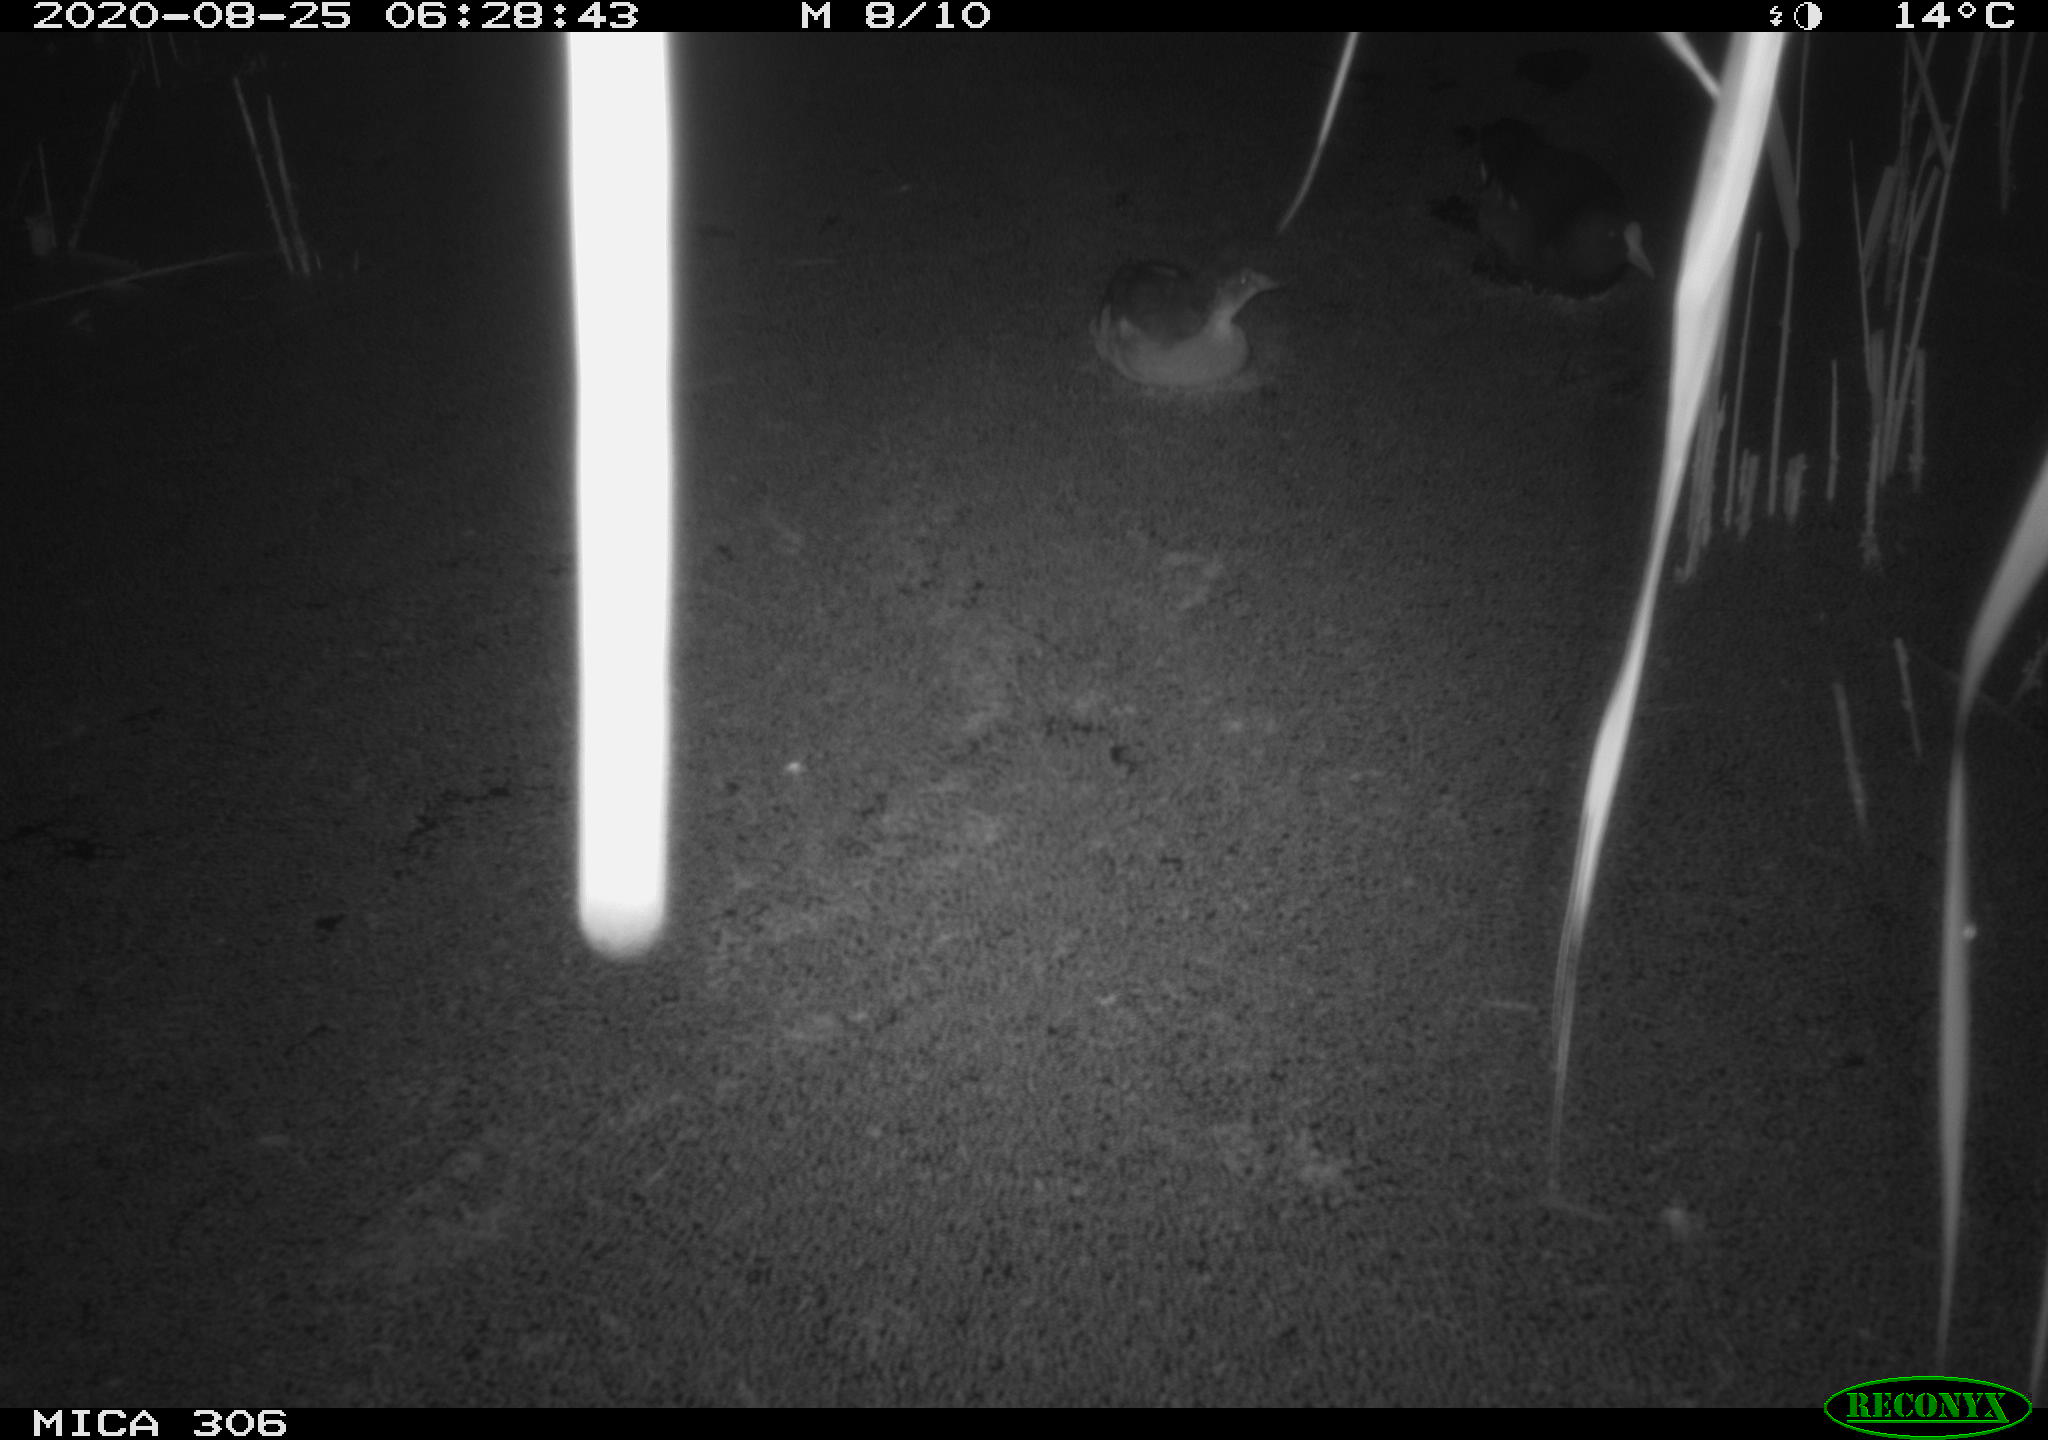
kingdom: Animalia
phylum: Chordata
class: Aves
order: Gruiformes
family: Rallidae
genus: Fulica
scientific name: Fulica atra
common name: Eurasian coot
